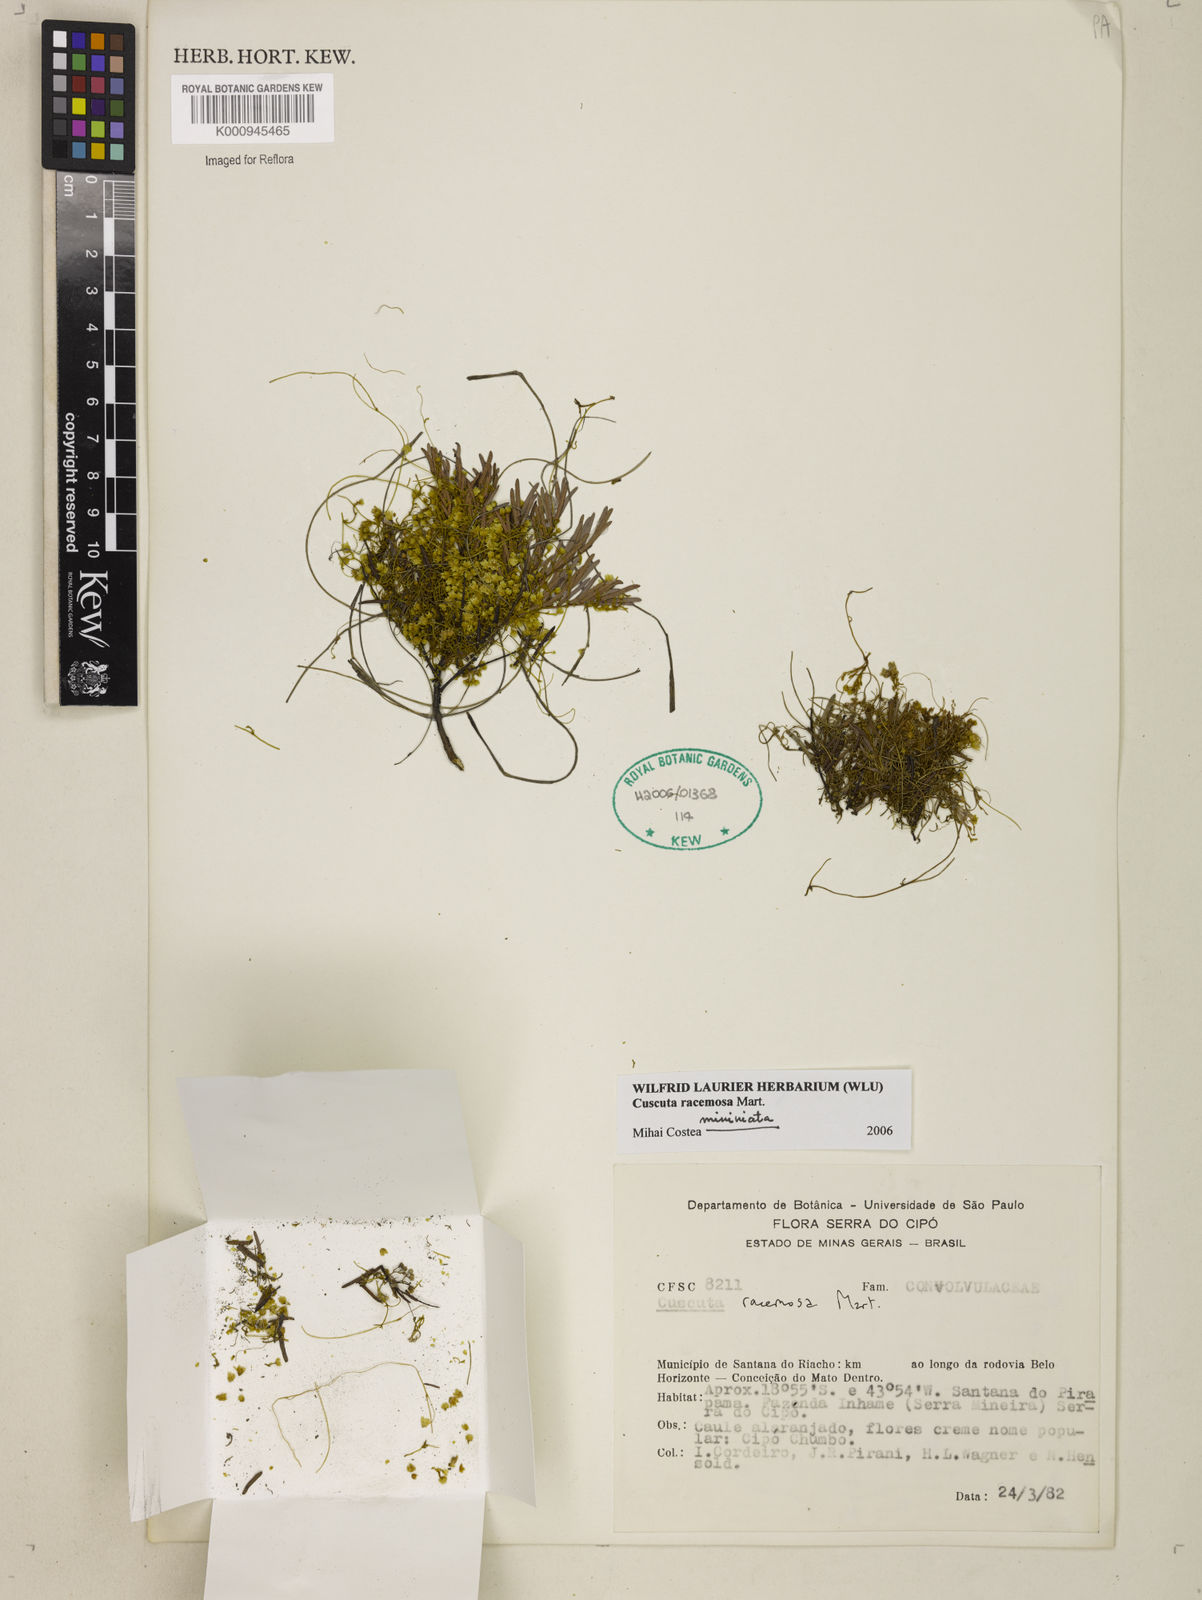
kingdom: Plantae
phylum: Tracheophyta
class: Magnoliopsida
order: Solanales
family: Convolvulaceae
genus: Cuscuta
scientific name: Cuscuta racemosa
